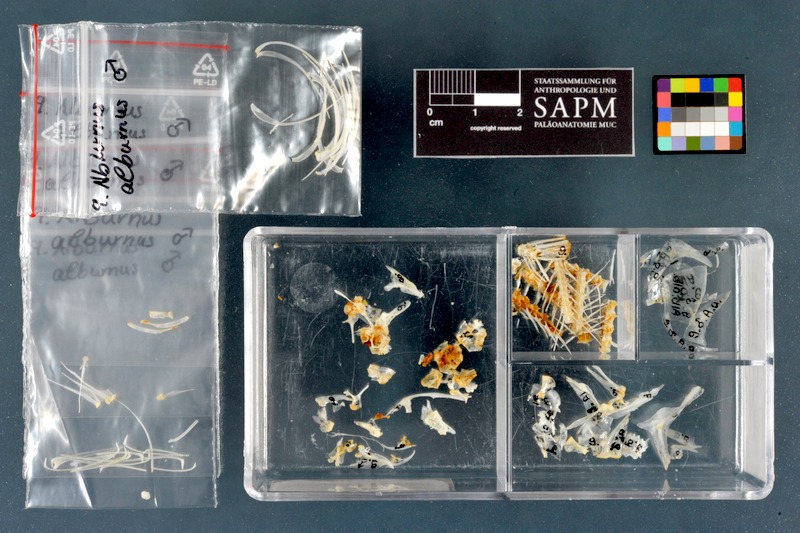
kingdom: Animalia
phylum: Chordata
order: Cypriniformes
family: Cyprinidae
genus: Alburnus
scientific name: Alburnus alburnus
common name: Bleak
